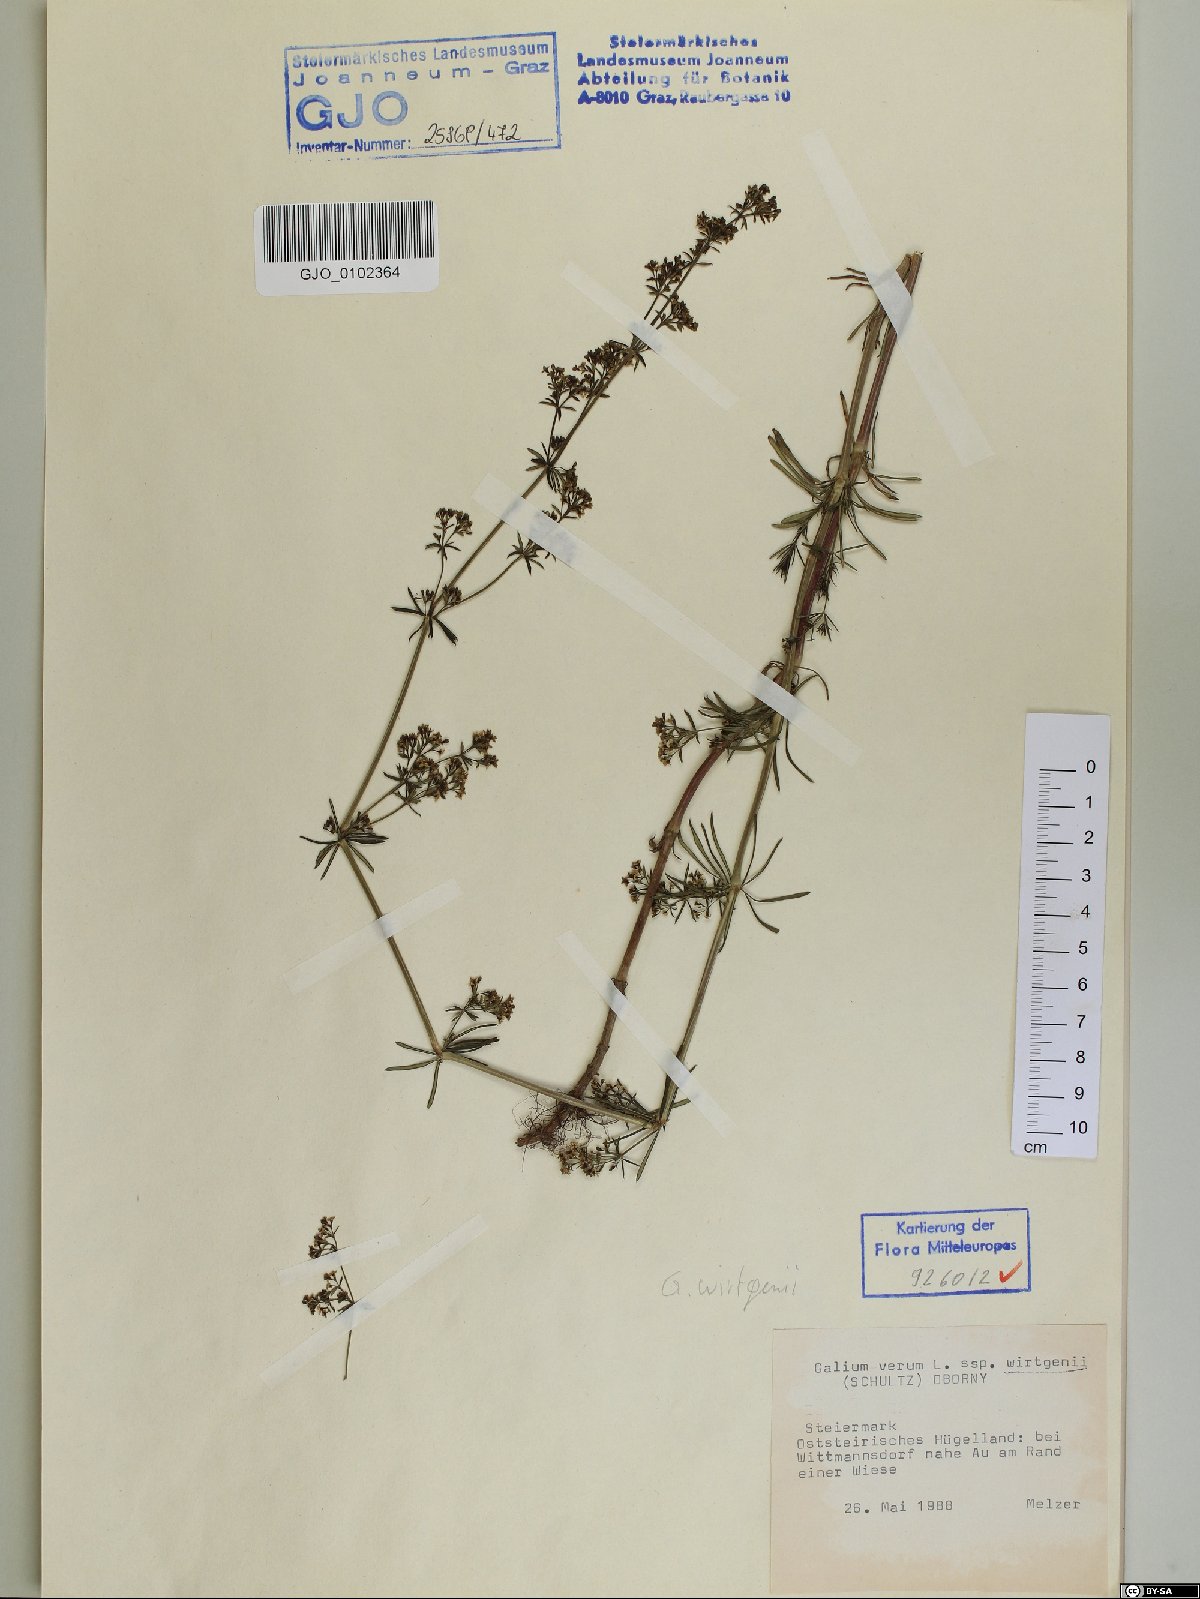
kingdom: Plantae
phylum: Tracheophyta
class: Magnoliopsida
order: Gentianales
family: Rubiaceae
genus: Galium
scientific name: Galium verum
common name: Lady's bedstraw
